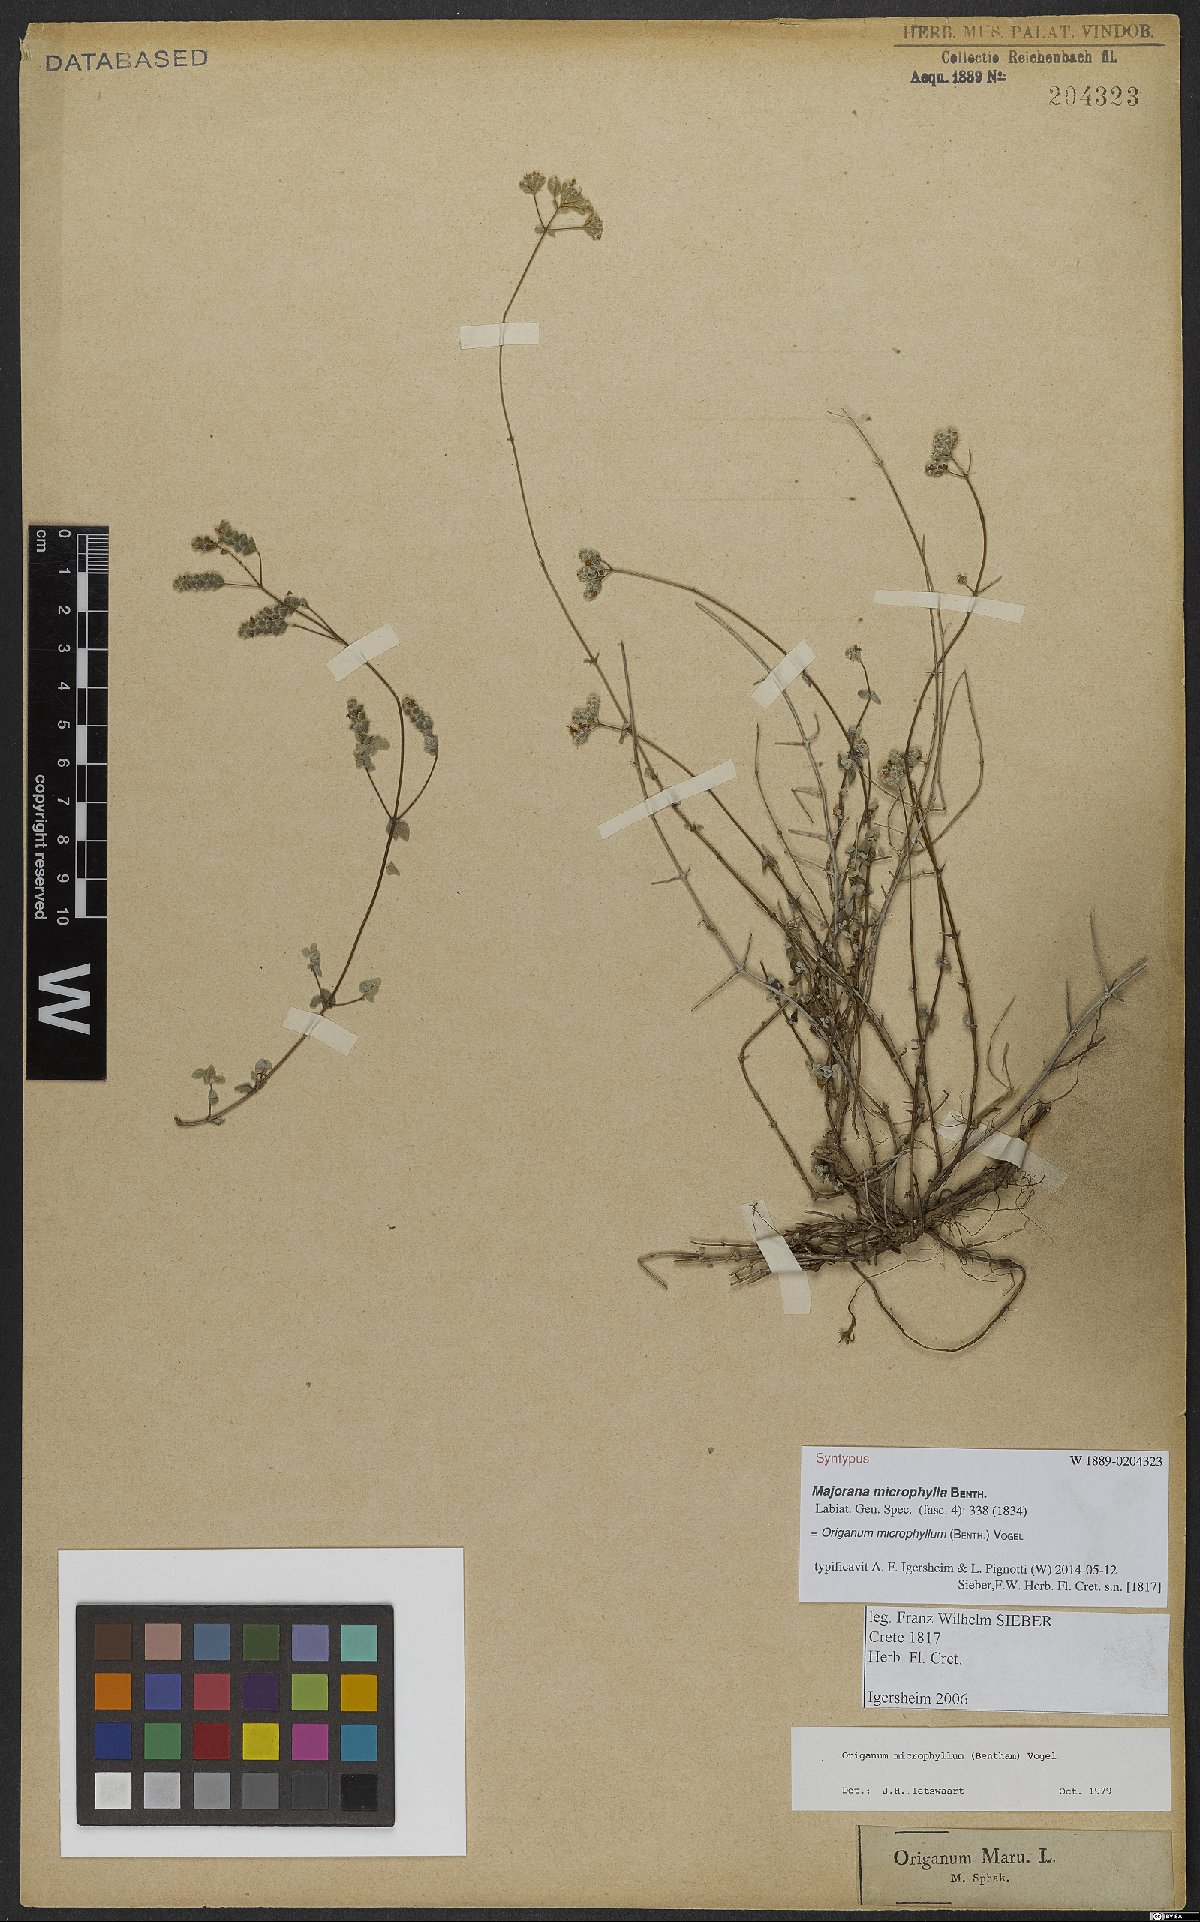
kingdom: Plantae
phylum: Tracheophyta
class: Magnoliopsida
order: Lamiales
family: Lamiaceae
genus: Origanum
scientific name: Origanum microphyllum
